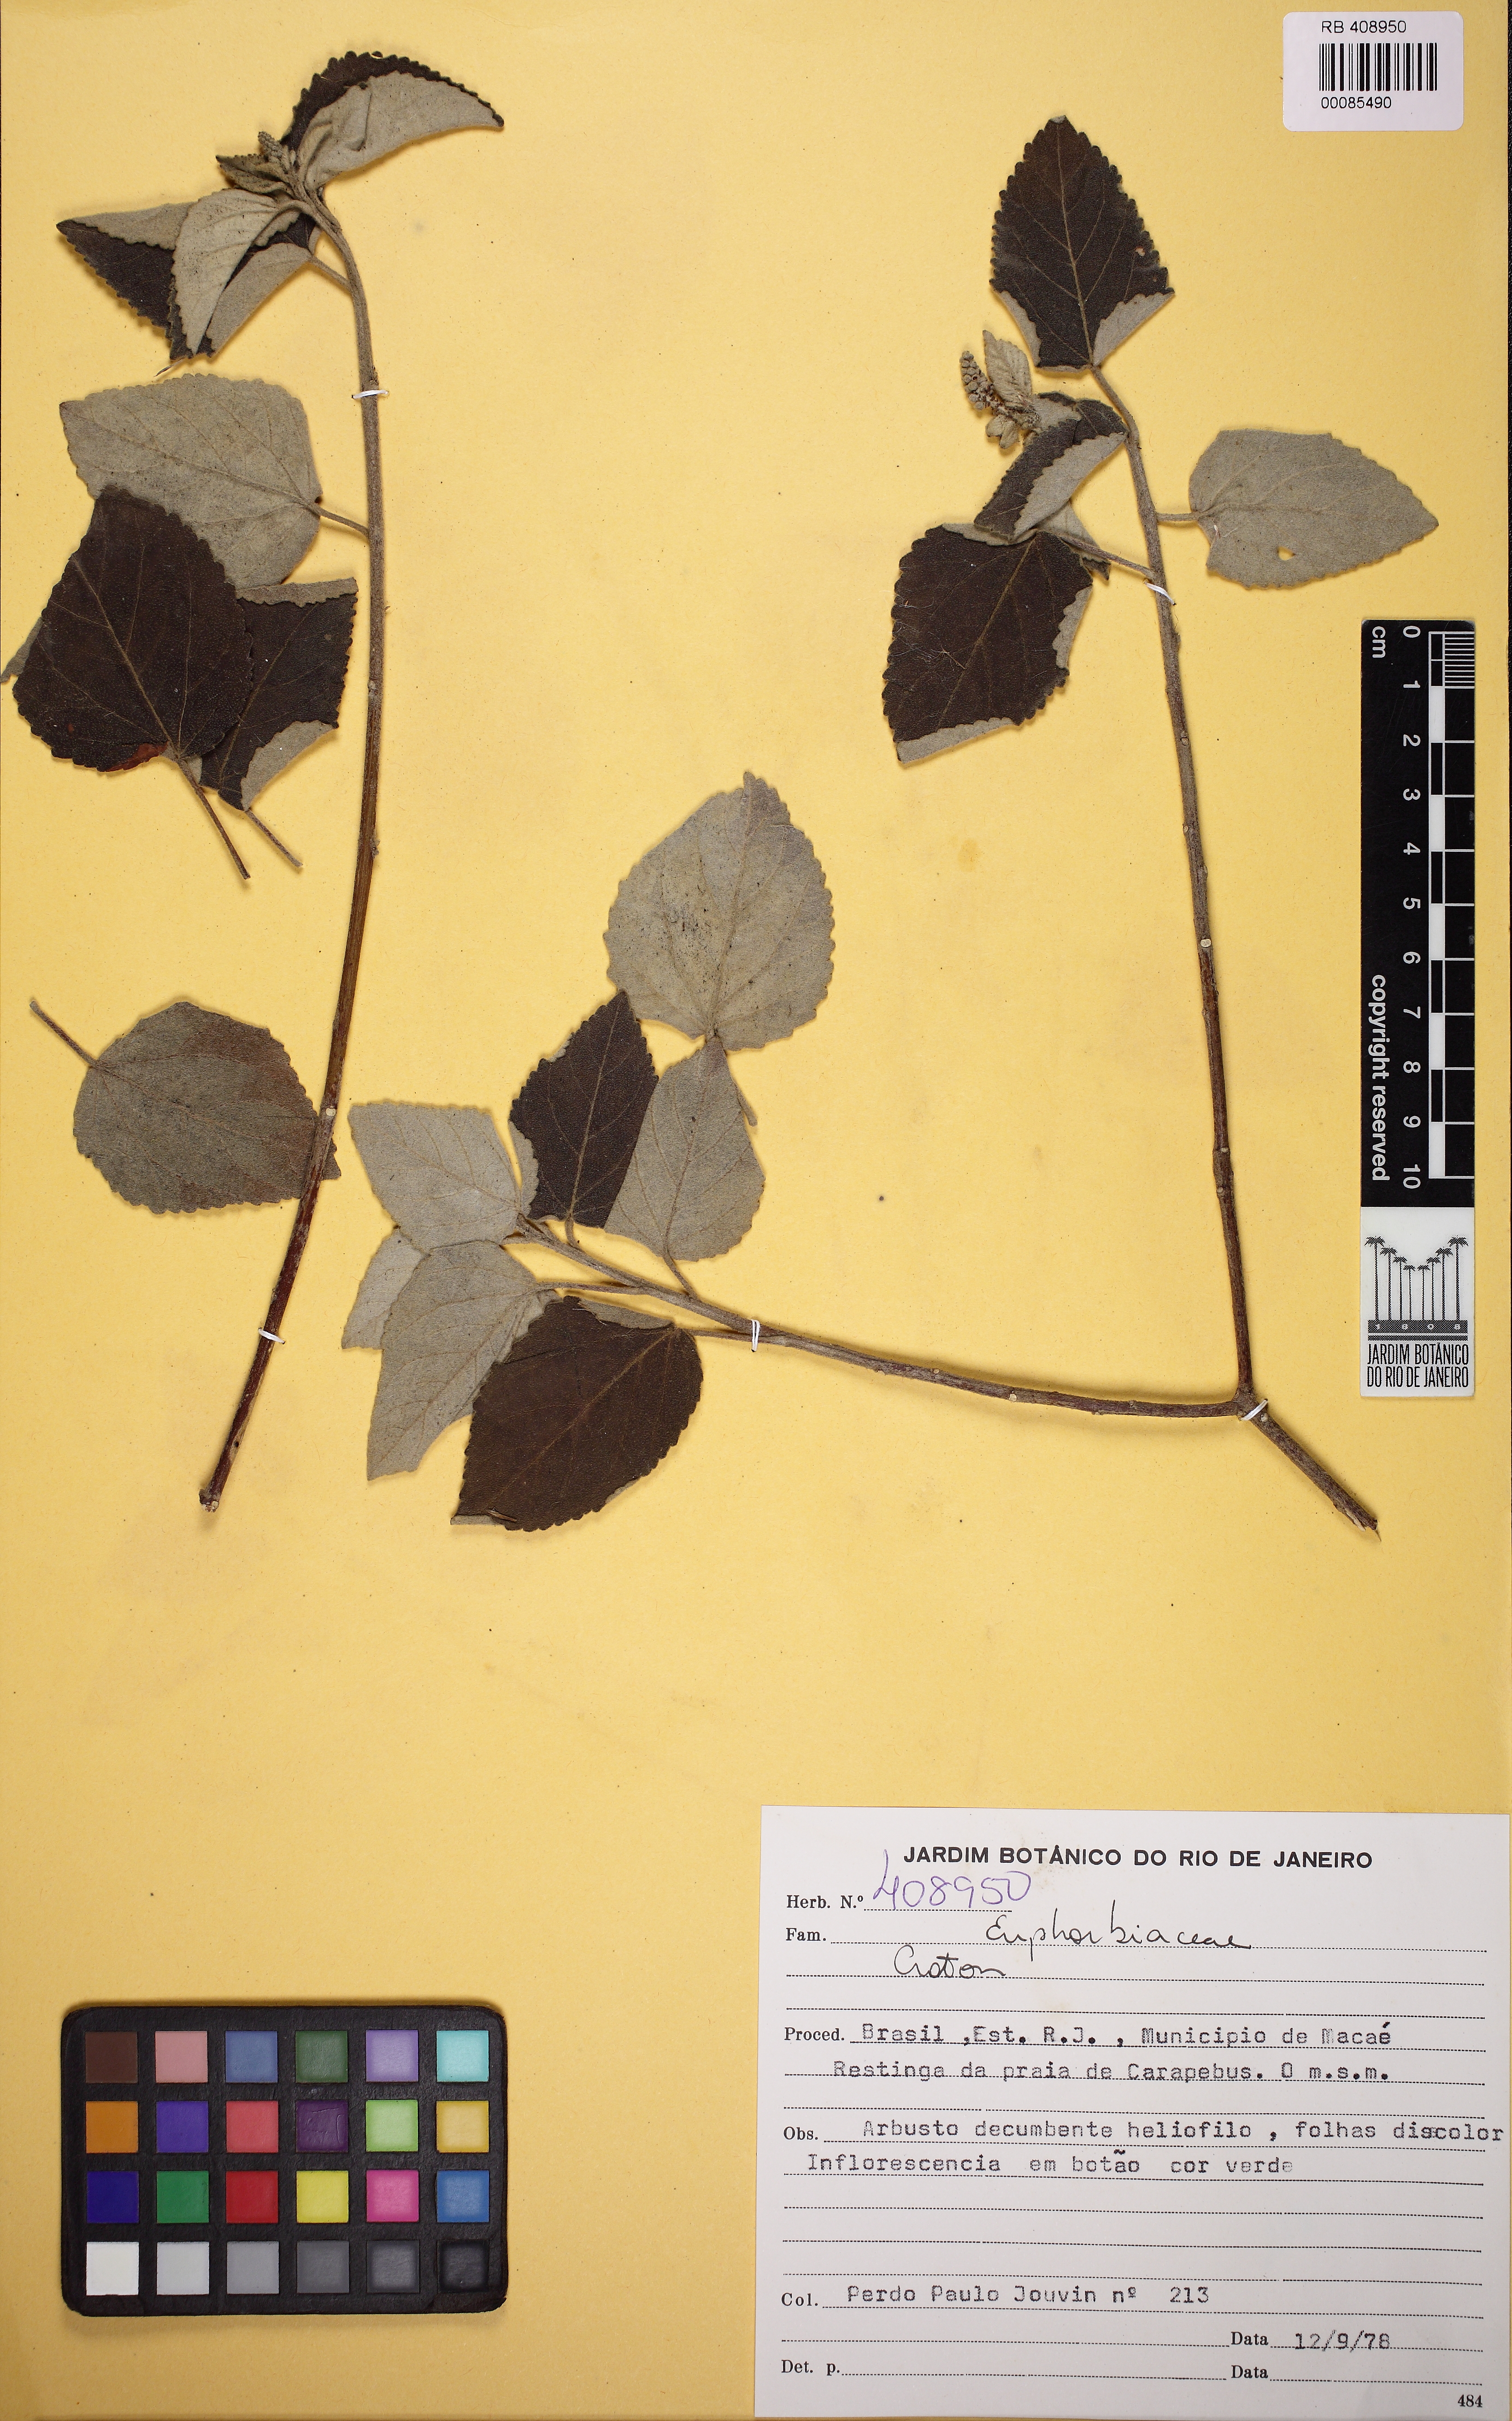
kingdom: Plantae
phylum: Tracheophyta
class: Magnoliopsida
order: Malpighiales
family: Euphorbiaceae
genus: Croton
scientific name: Croton
